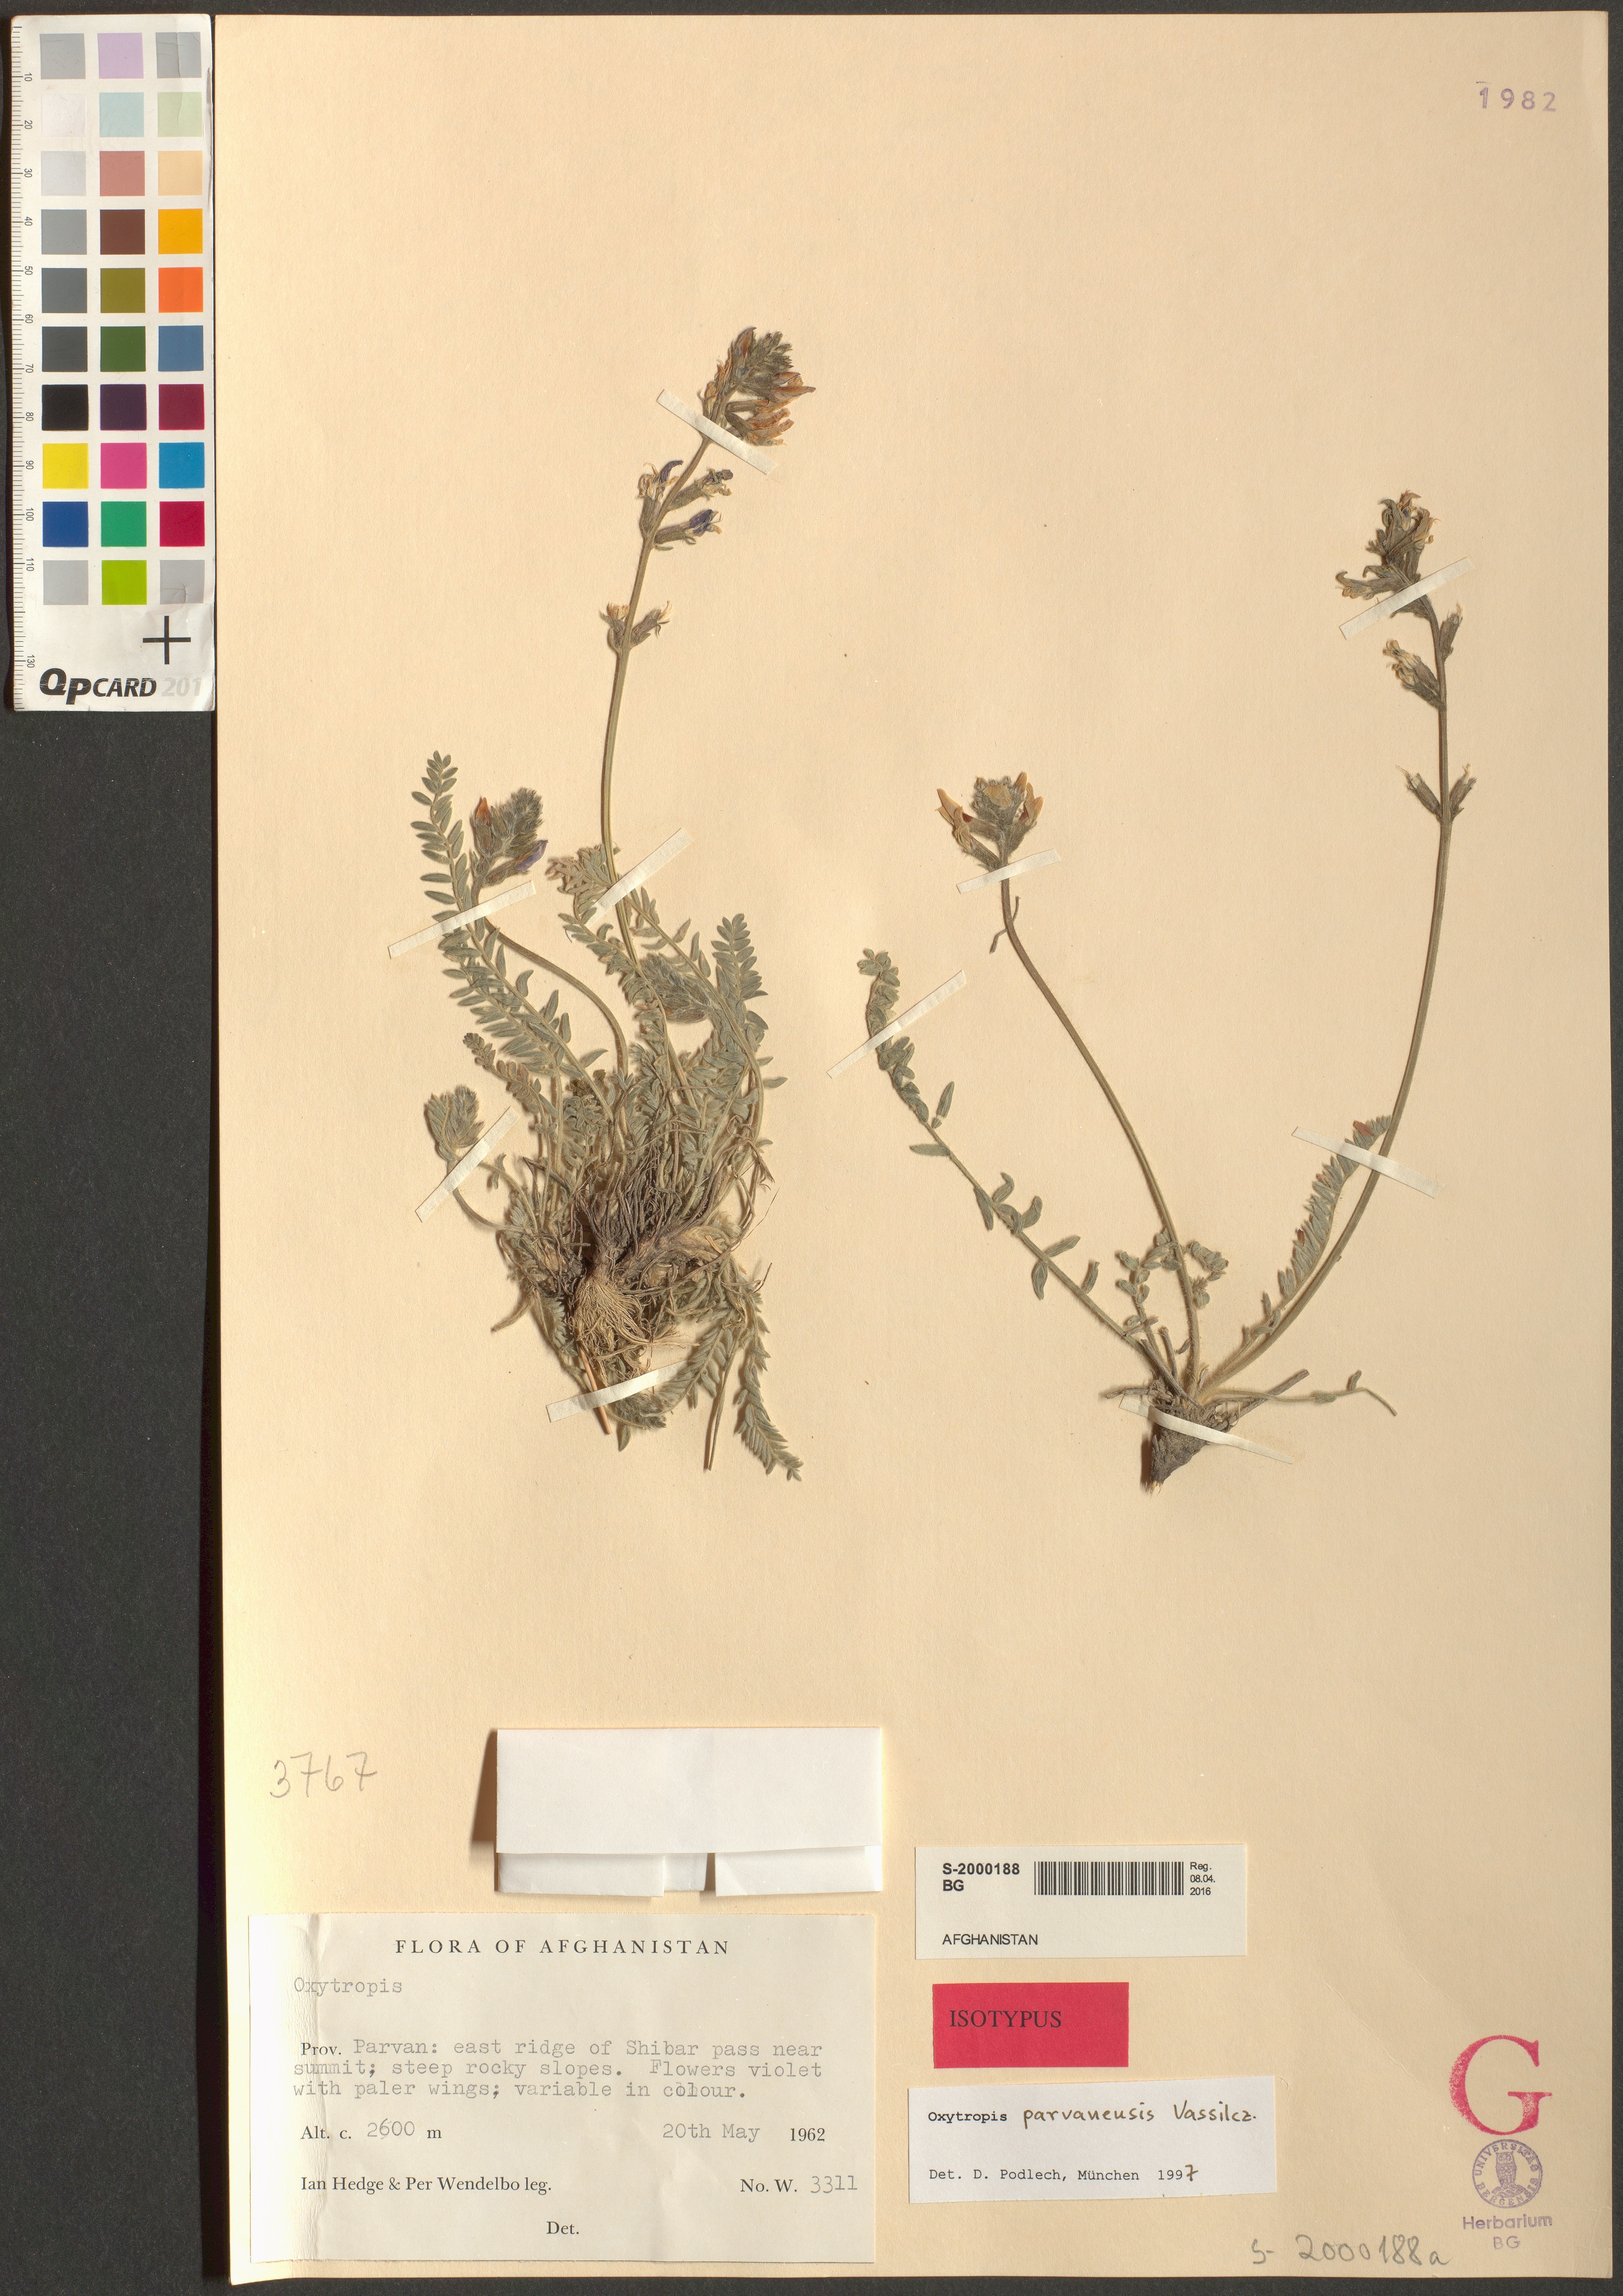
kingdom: Plantae
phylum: Tracheophyta
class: Magnoliopsida
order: Fabales
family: Fabaceae
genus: Oxytropis
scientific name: Oxytropis parvanensis
